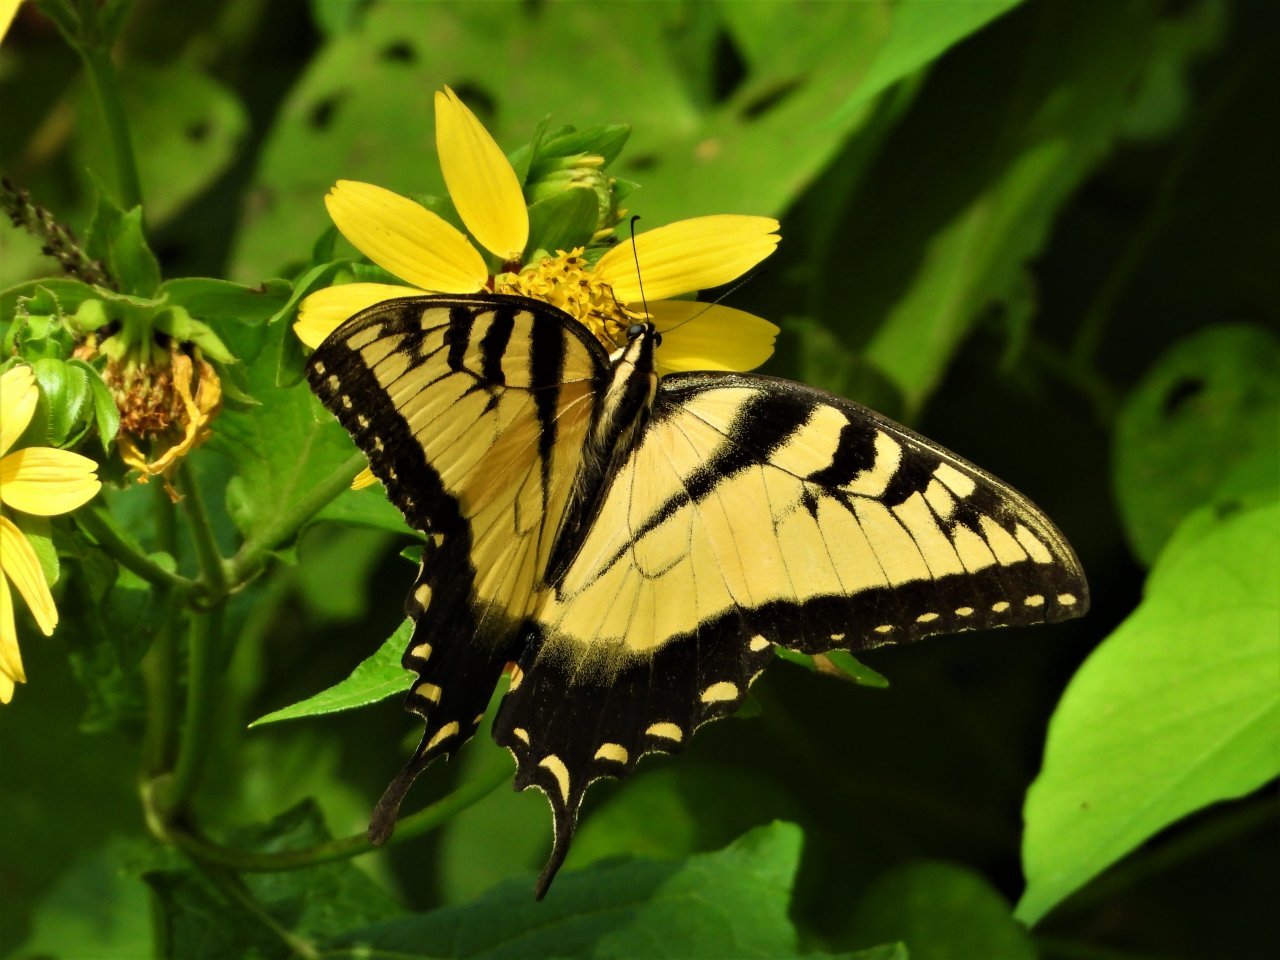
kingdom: Animalia
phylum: Arthropoda
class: Insecta
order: Lepidoptera
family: Papilionidae
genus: Pterourus
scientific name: Pterourus glaucus
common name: Eastern Tiger Swallowtail
